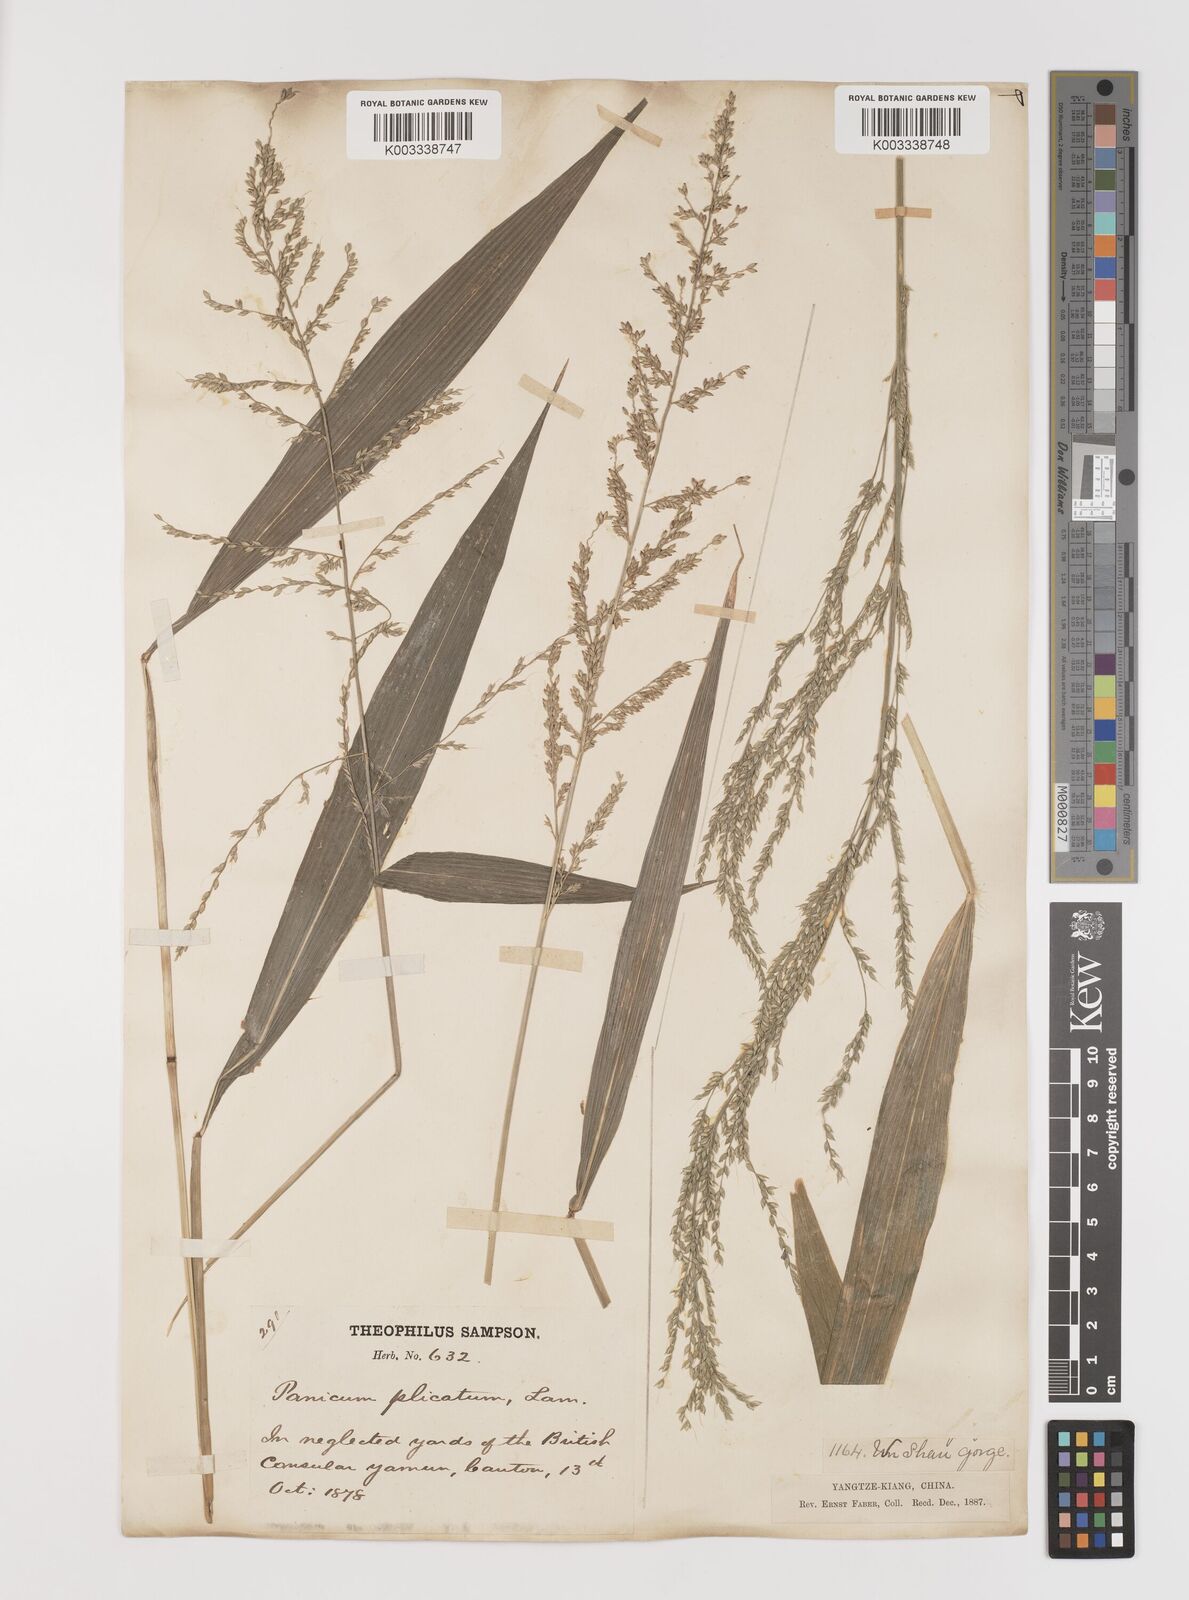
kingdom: Plantae
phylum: Tracheophyta
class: Liliopsida
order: Poales
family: Poaceae
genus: Setaria
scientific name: Setaria plicata
